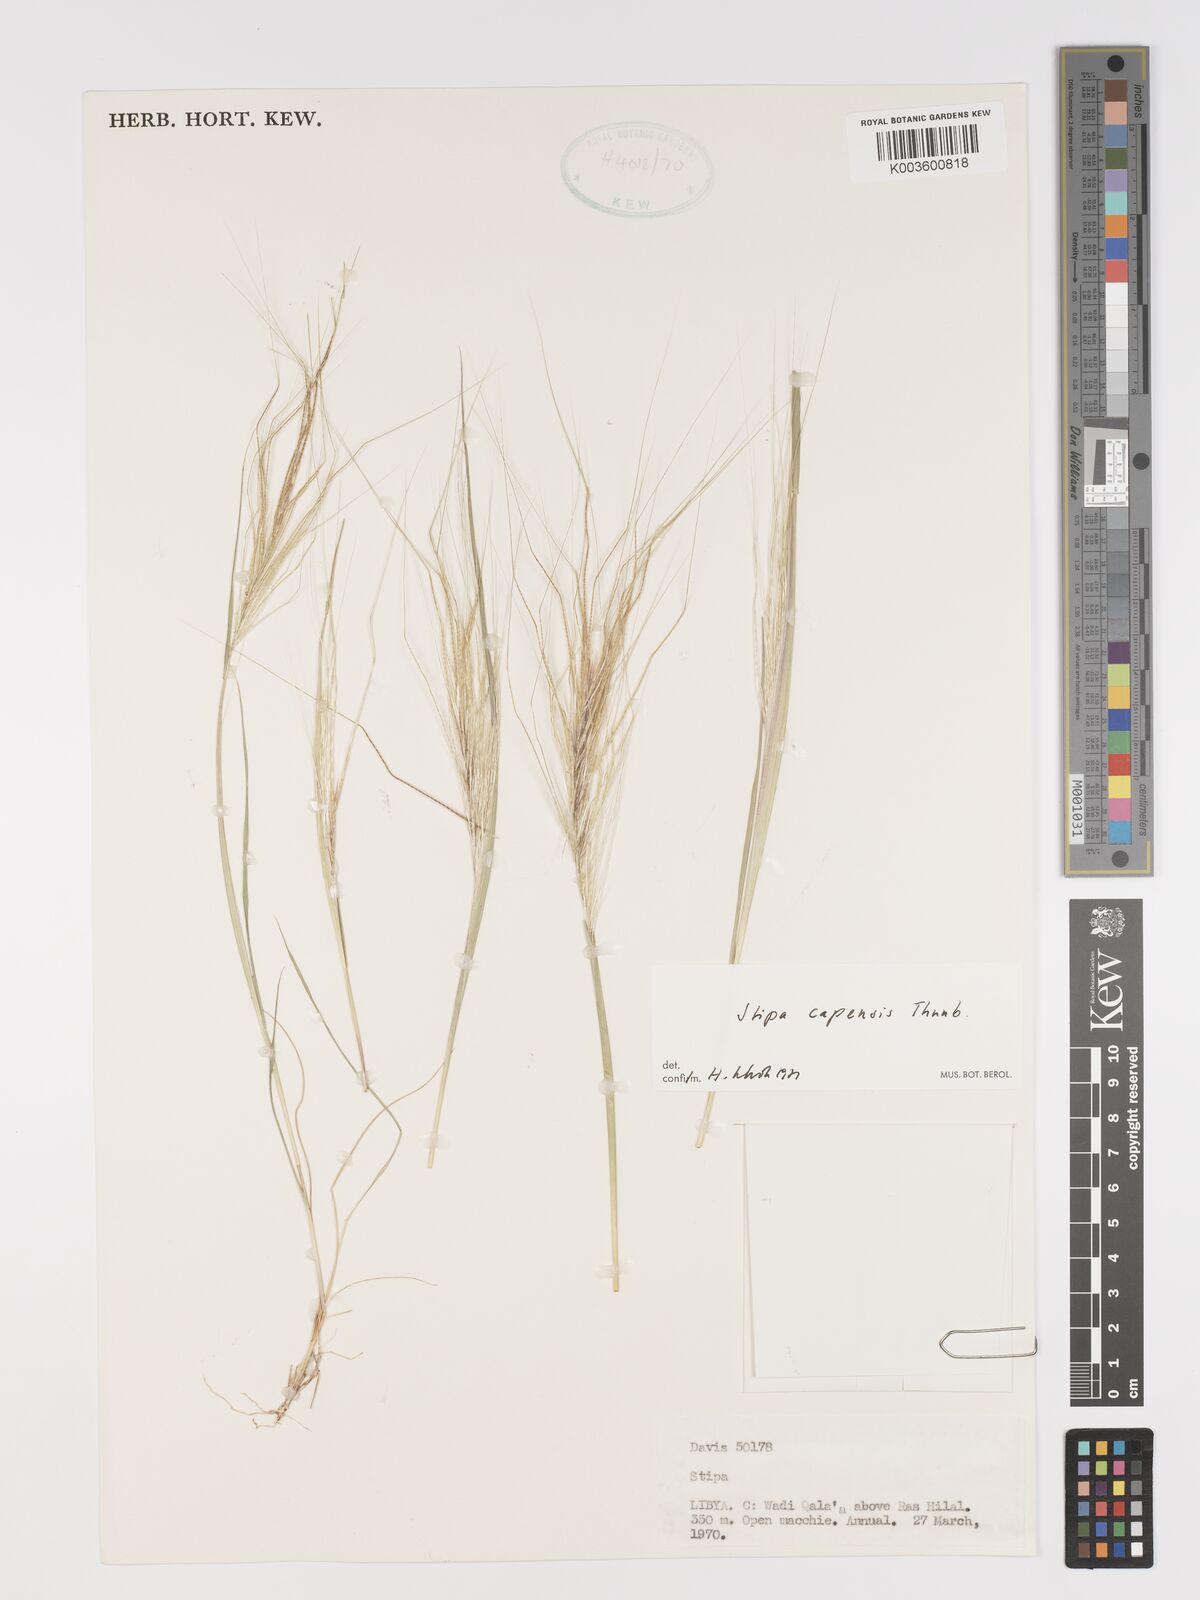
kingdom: Plantae
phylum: Tracheophyta
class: Liliopsida
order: Poales
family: Poaceae
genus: Stipellula
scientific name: Stipellula capensis
